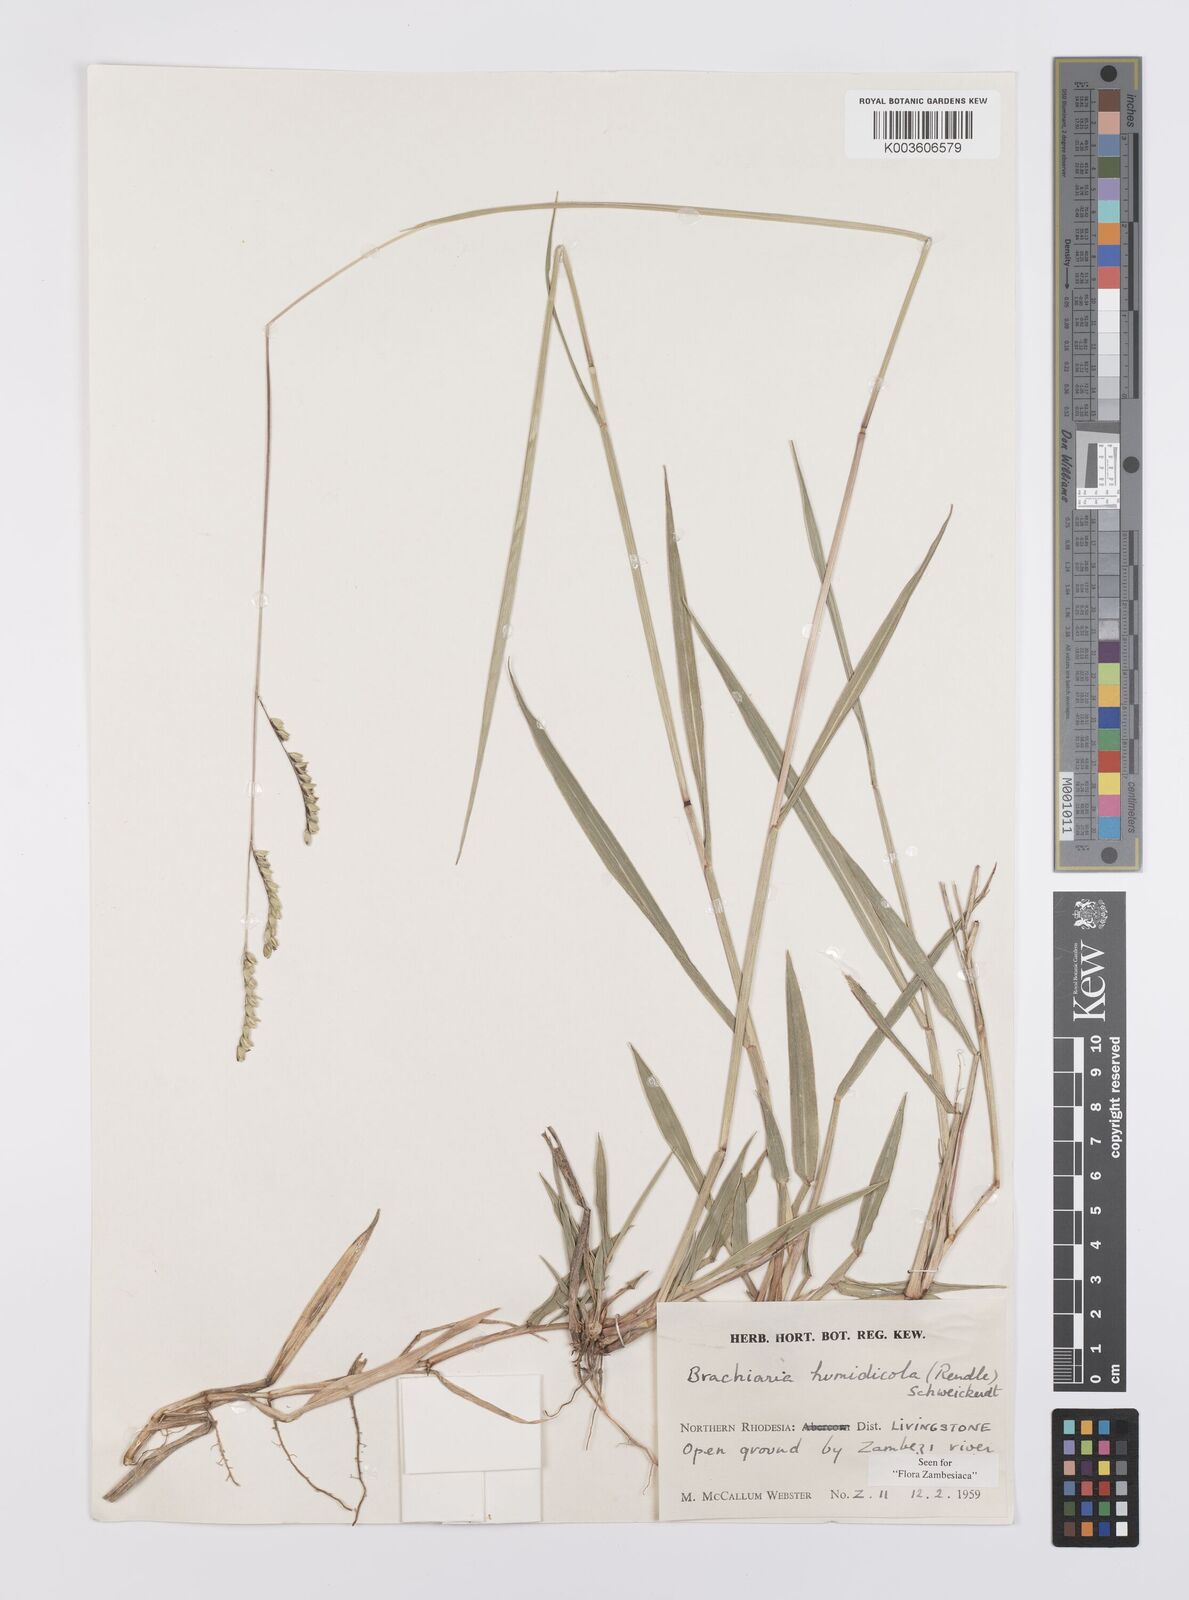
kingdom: Plantae
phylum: Tracheophyta
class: Liliopsida
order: Poales
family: Poaceae
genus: Urochloa
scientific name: Urochloa dictyoneura
